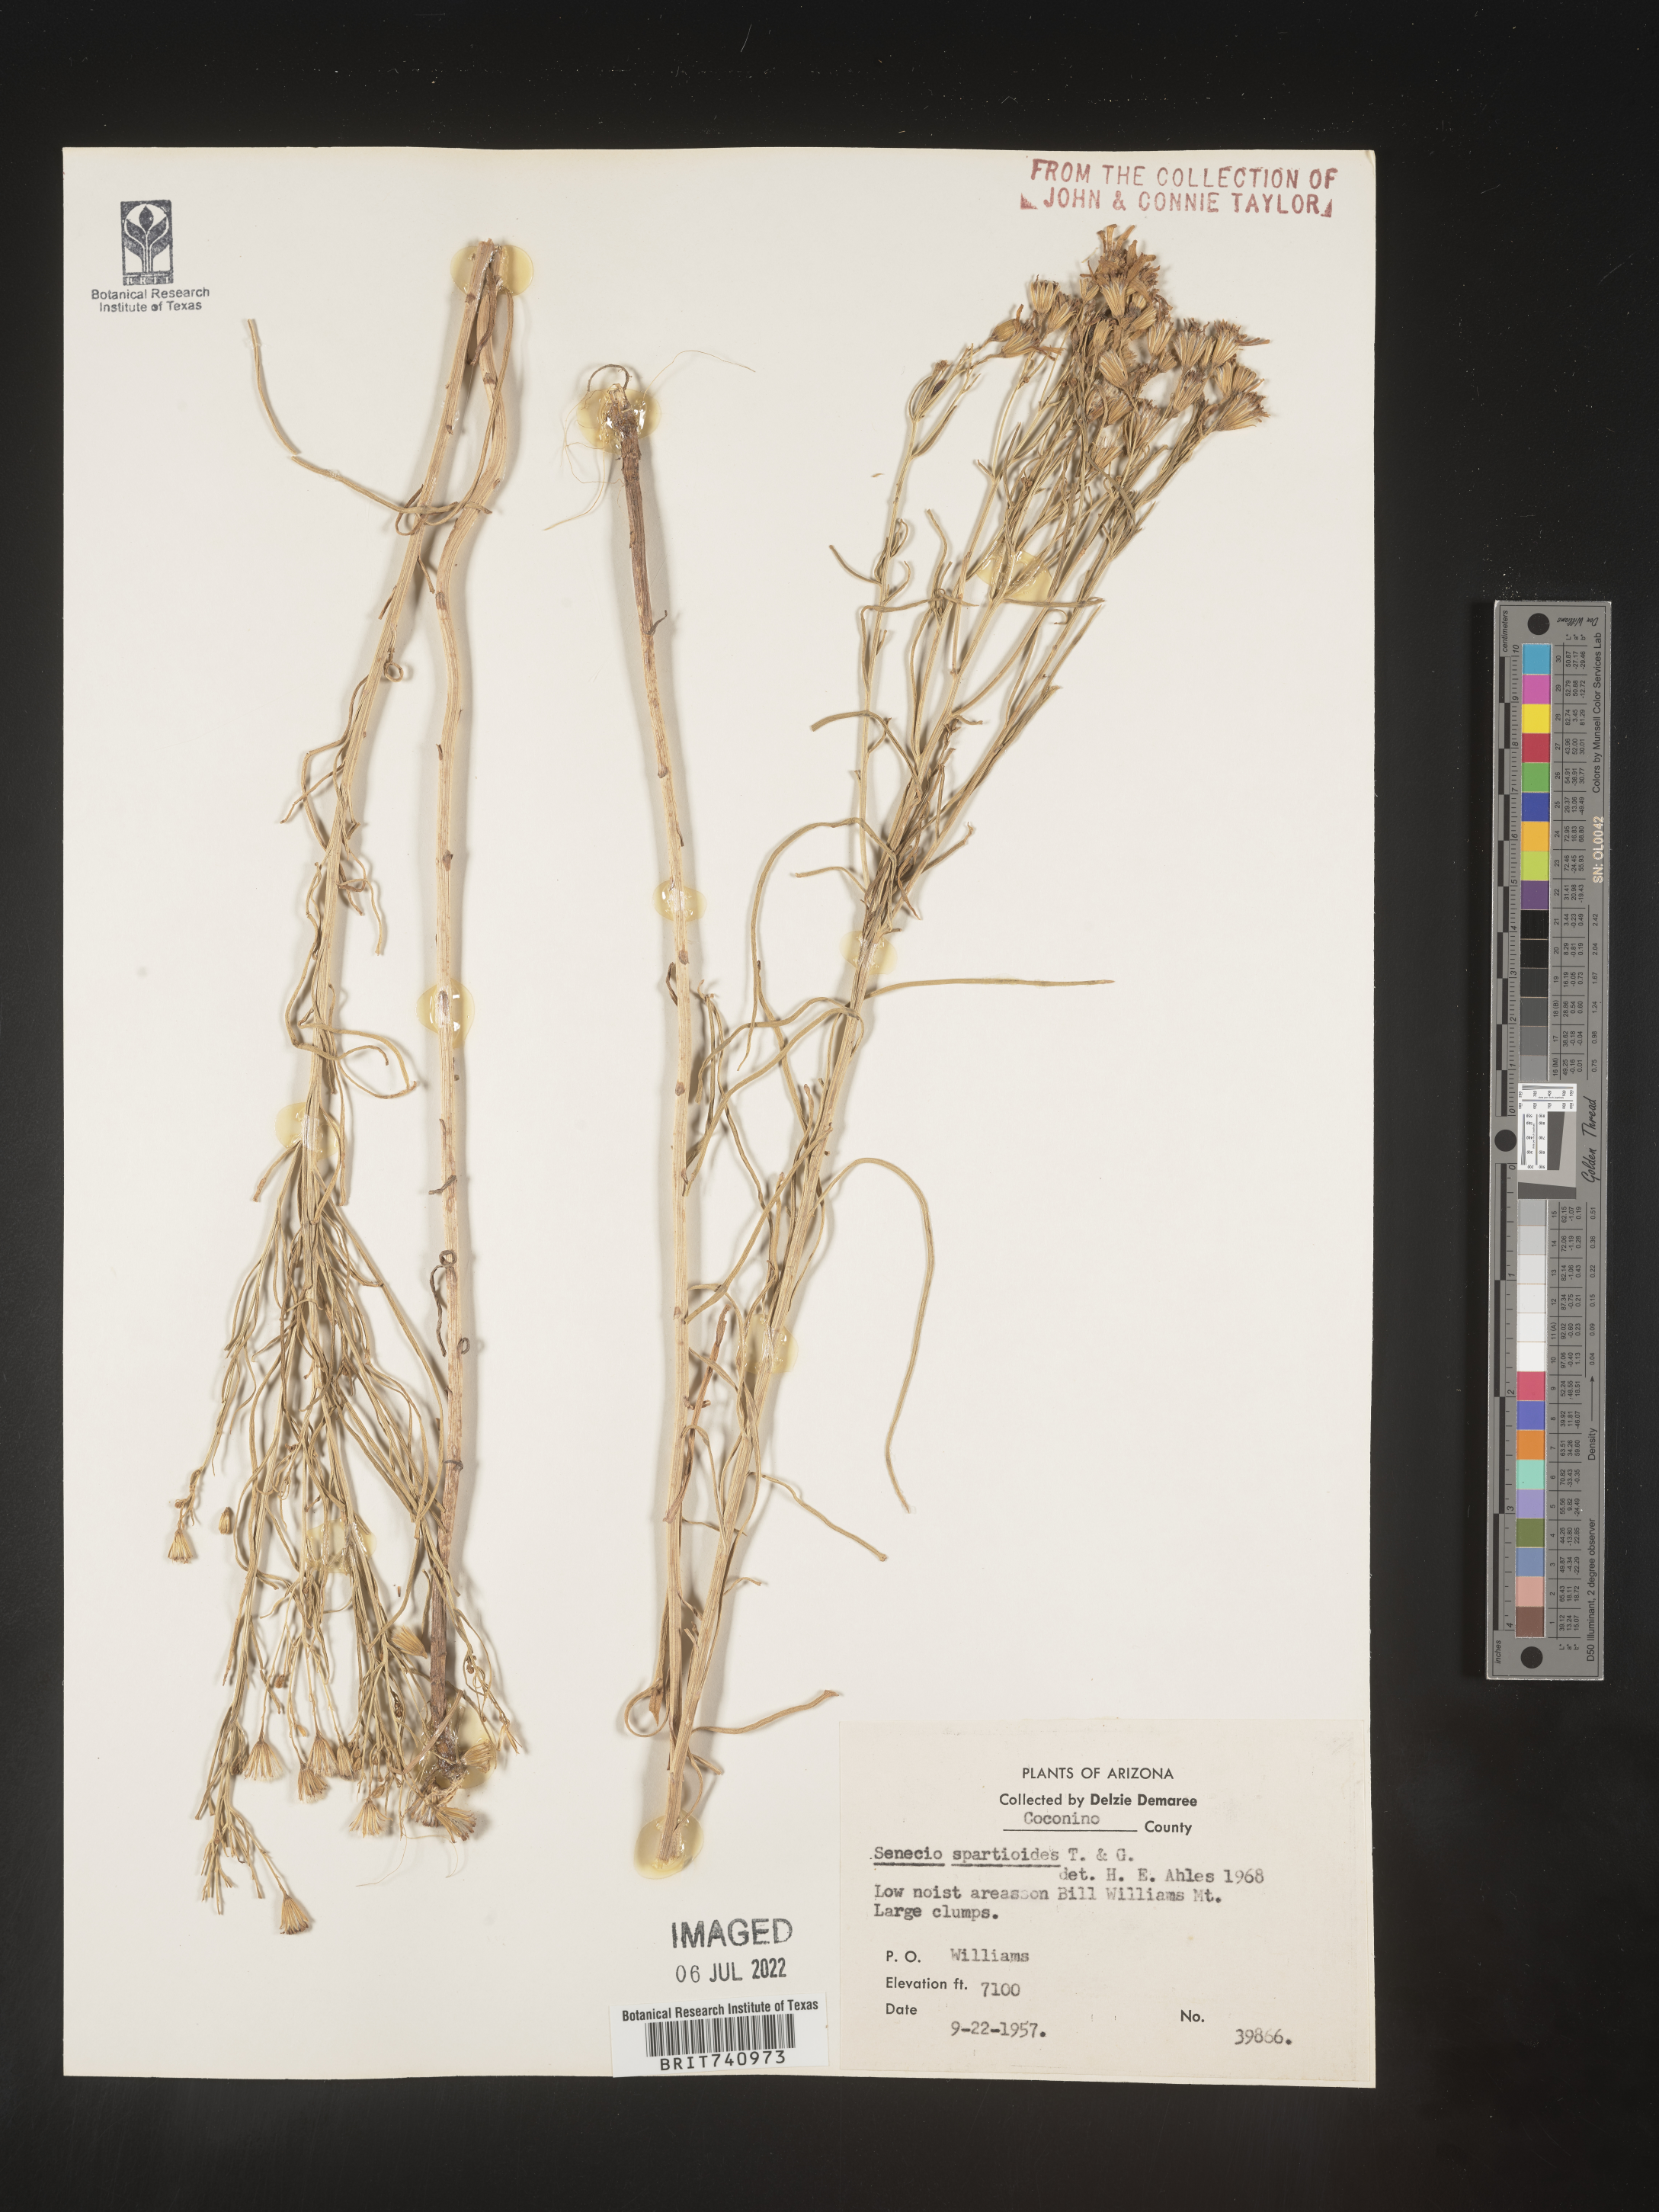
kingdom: Plantae
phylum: Tracheophyta
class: Magnoliopsida
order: Asterales
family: Asteraceae
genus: Senecio
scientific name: Senecio spartioides
